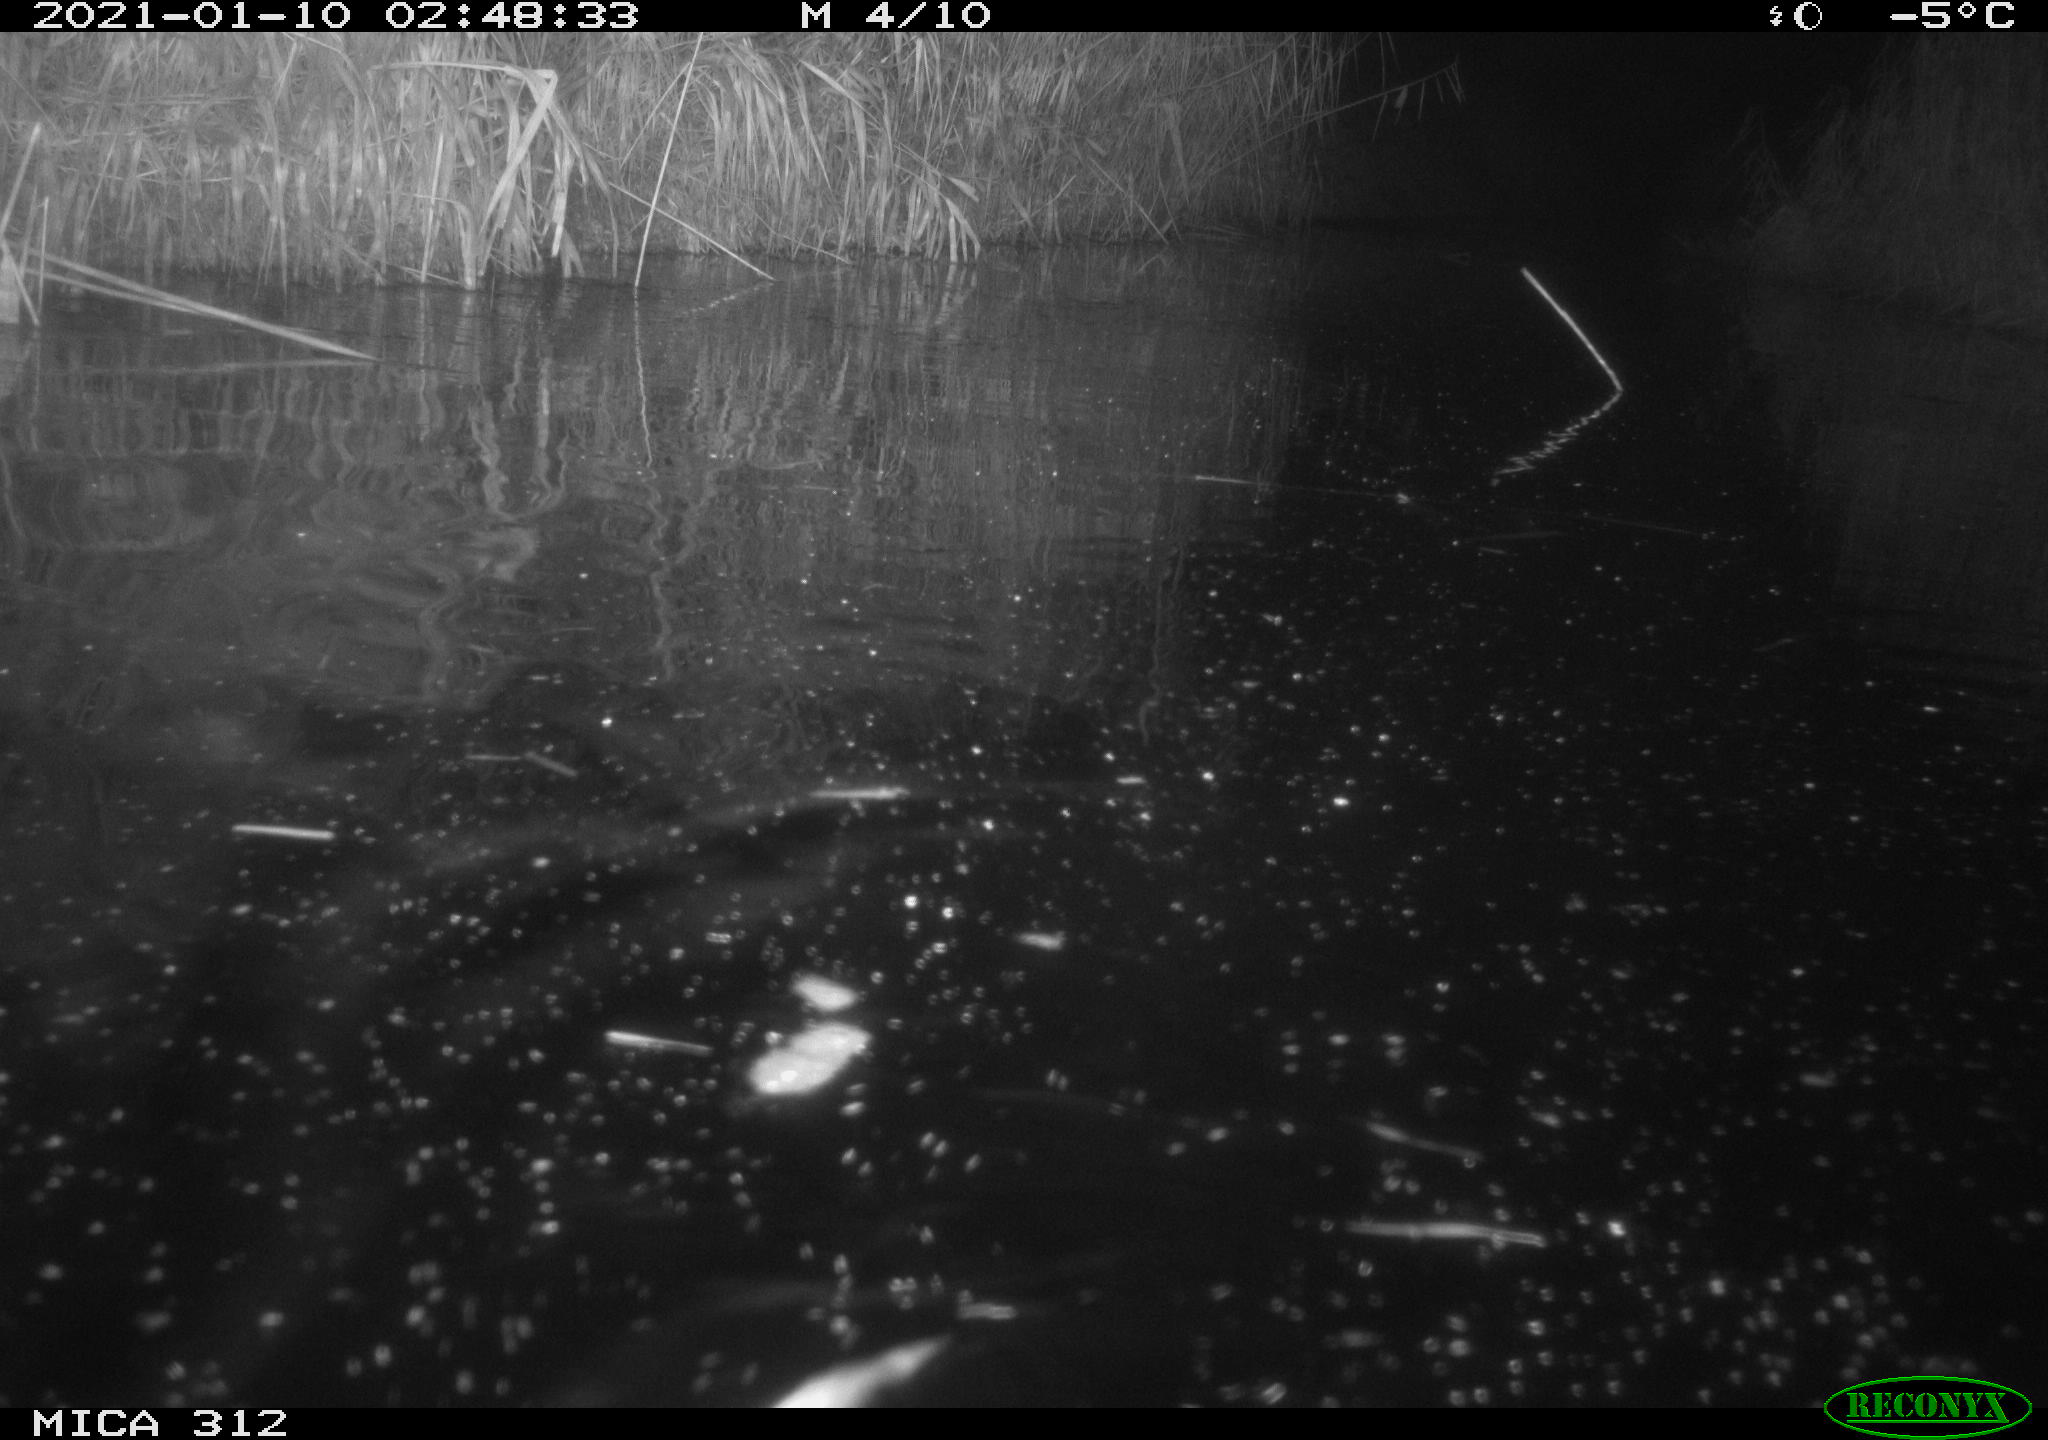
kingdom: Animalia
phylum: Chordata
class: Mammalia
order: Rodentia
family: Cricetidae
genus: Ondatra
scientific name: Ondatra zibethicus
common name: Muskrat
